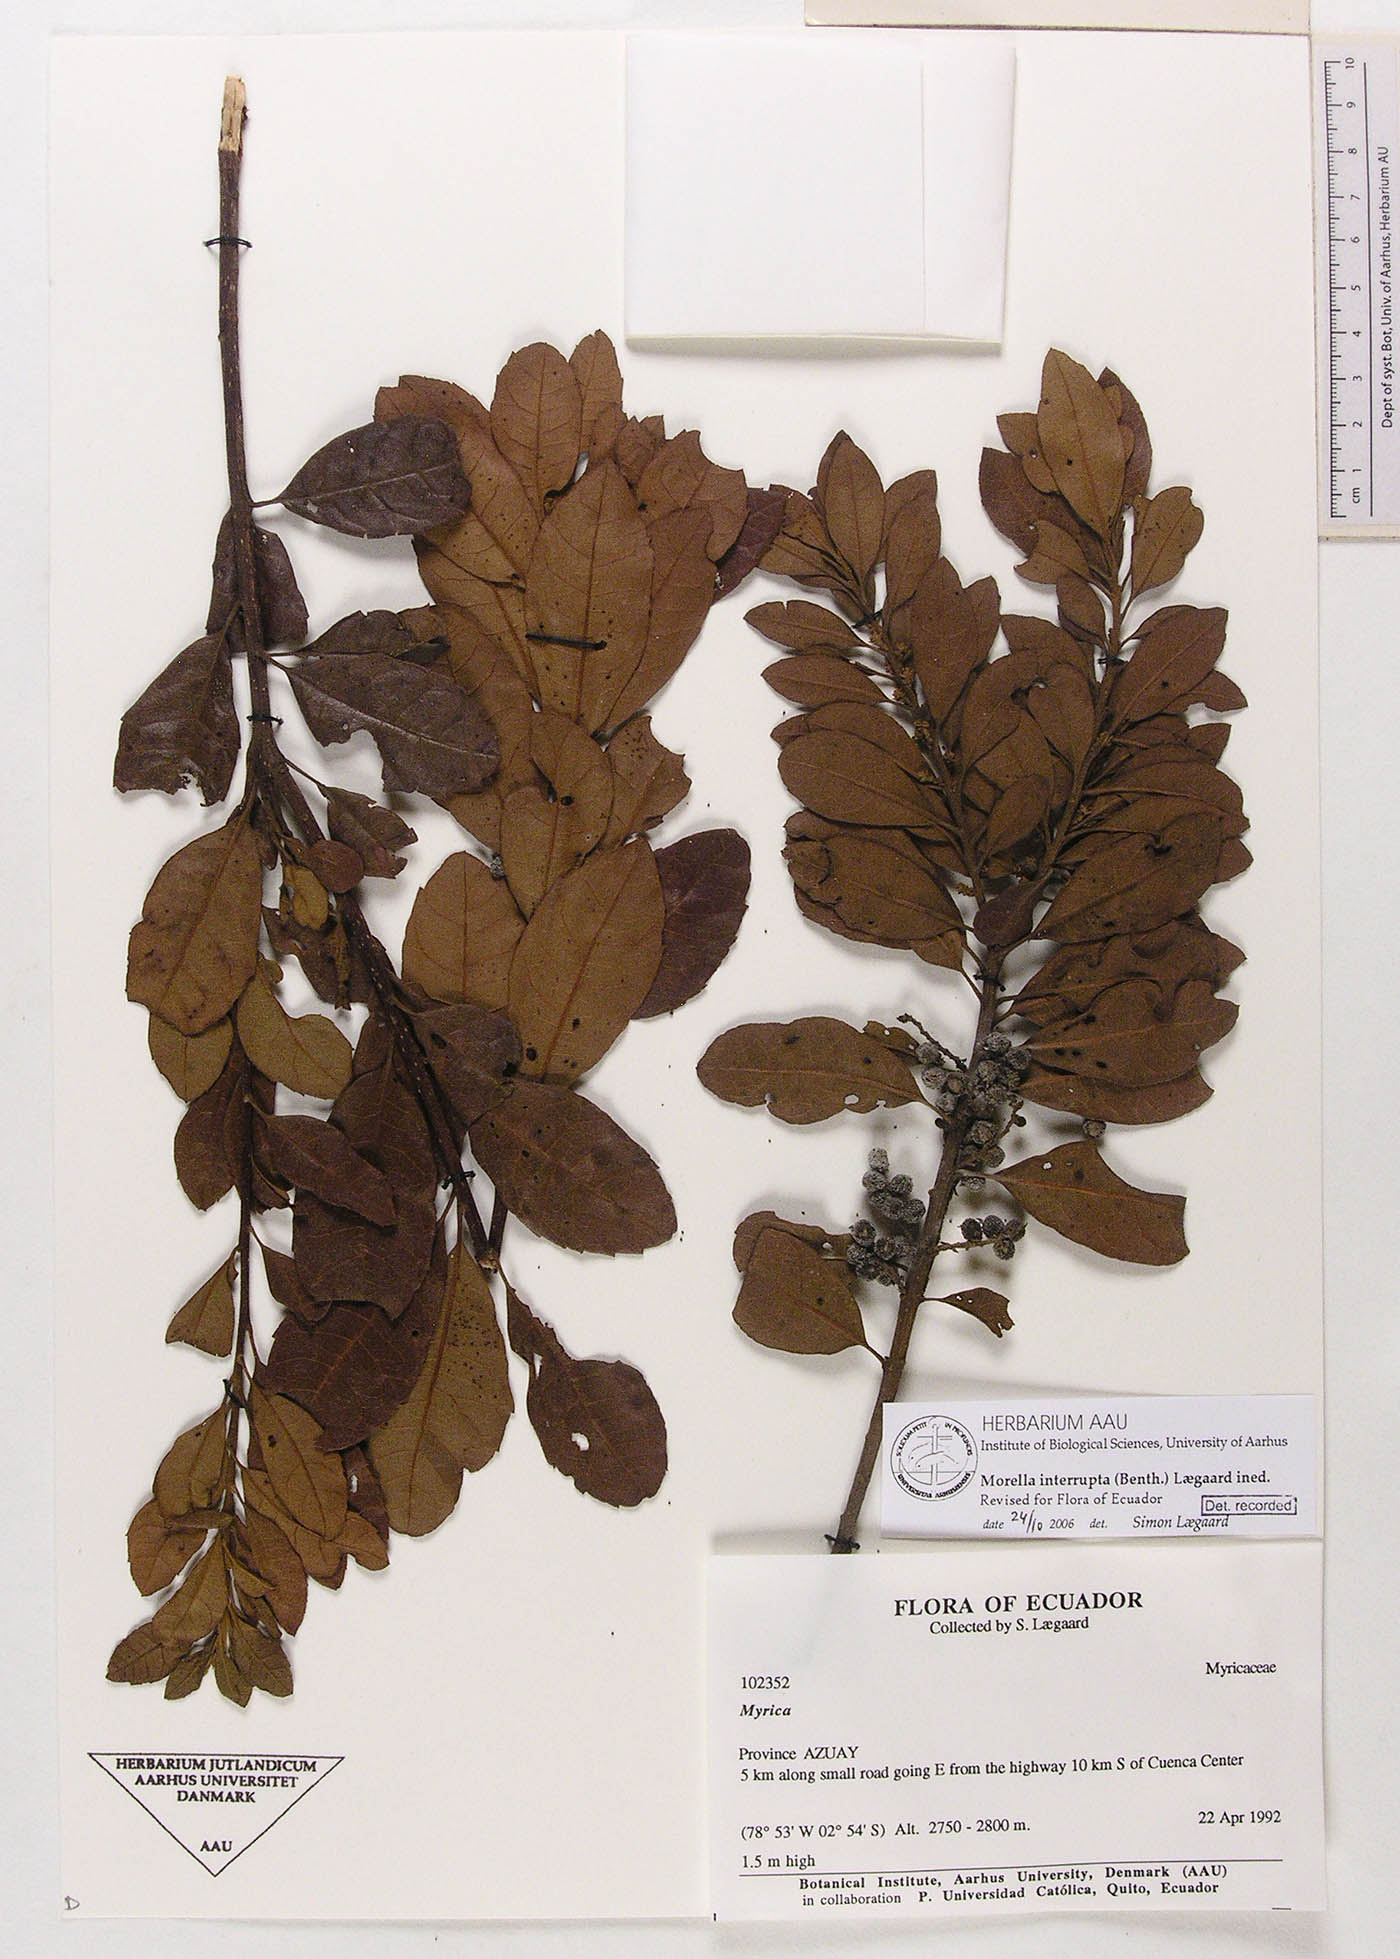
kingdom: Plantae
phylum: Tracheophyta
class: Magnoliopsida
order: Fagales
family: Myricaceae
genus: Morella
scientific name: Morella interrupta
